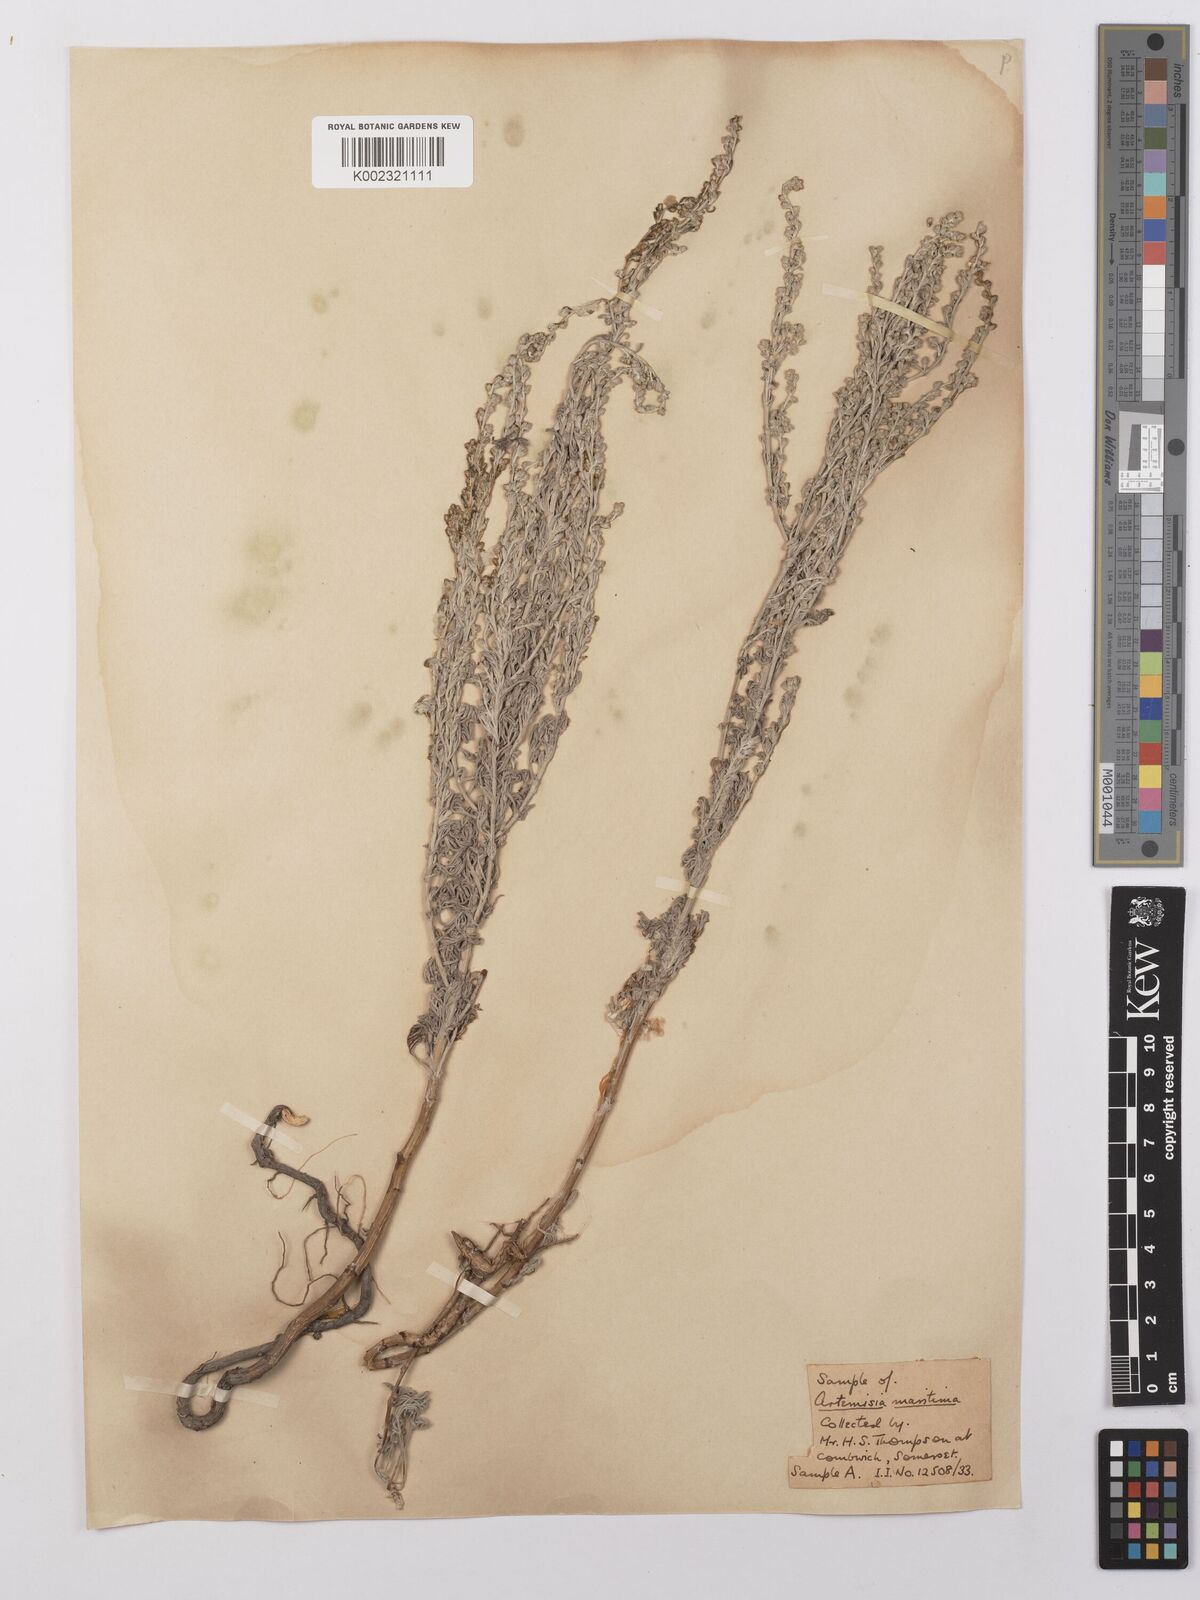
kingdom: Plantae
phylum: Tracheophyta
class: Magnoliopsida
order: Asterales
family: Asteraceae
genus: Artemisia
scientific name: Artemisia maritima
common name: Wormseed
